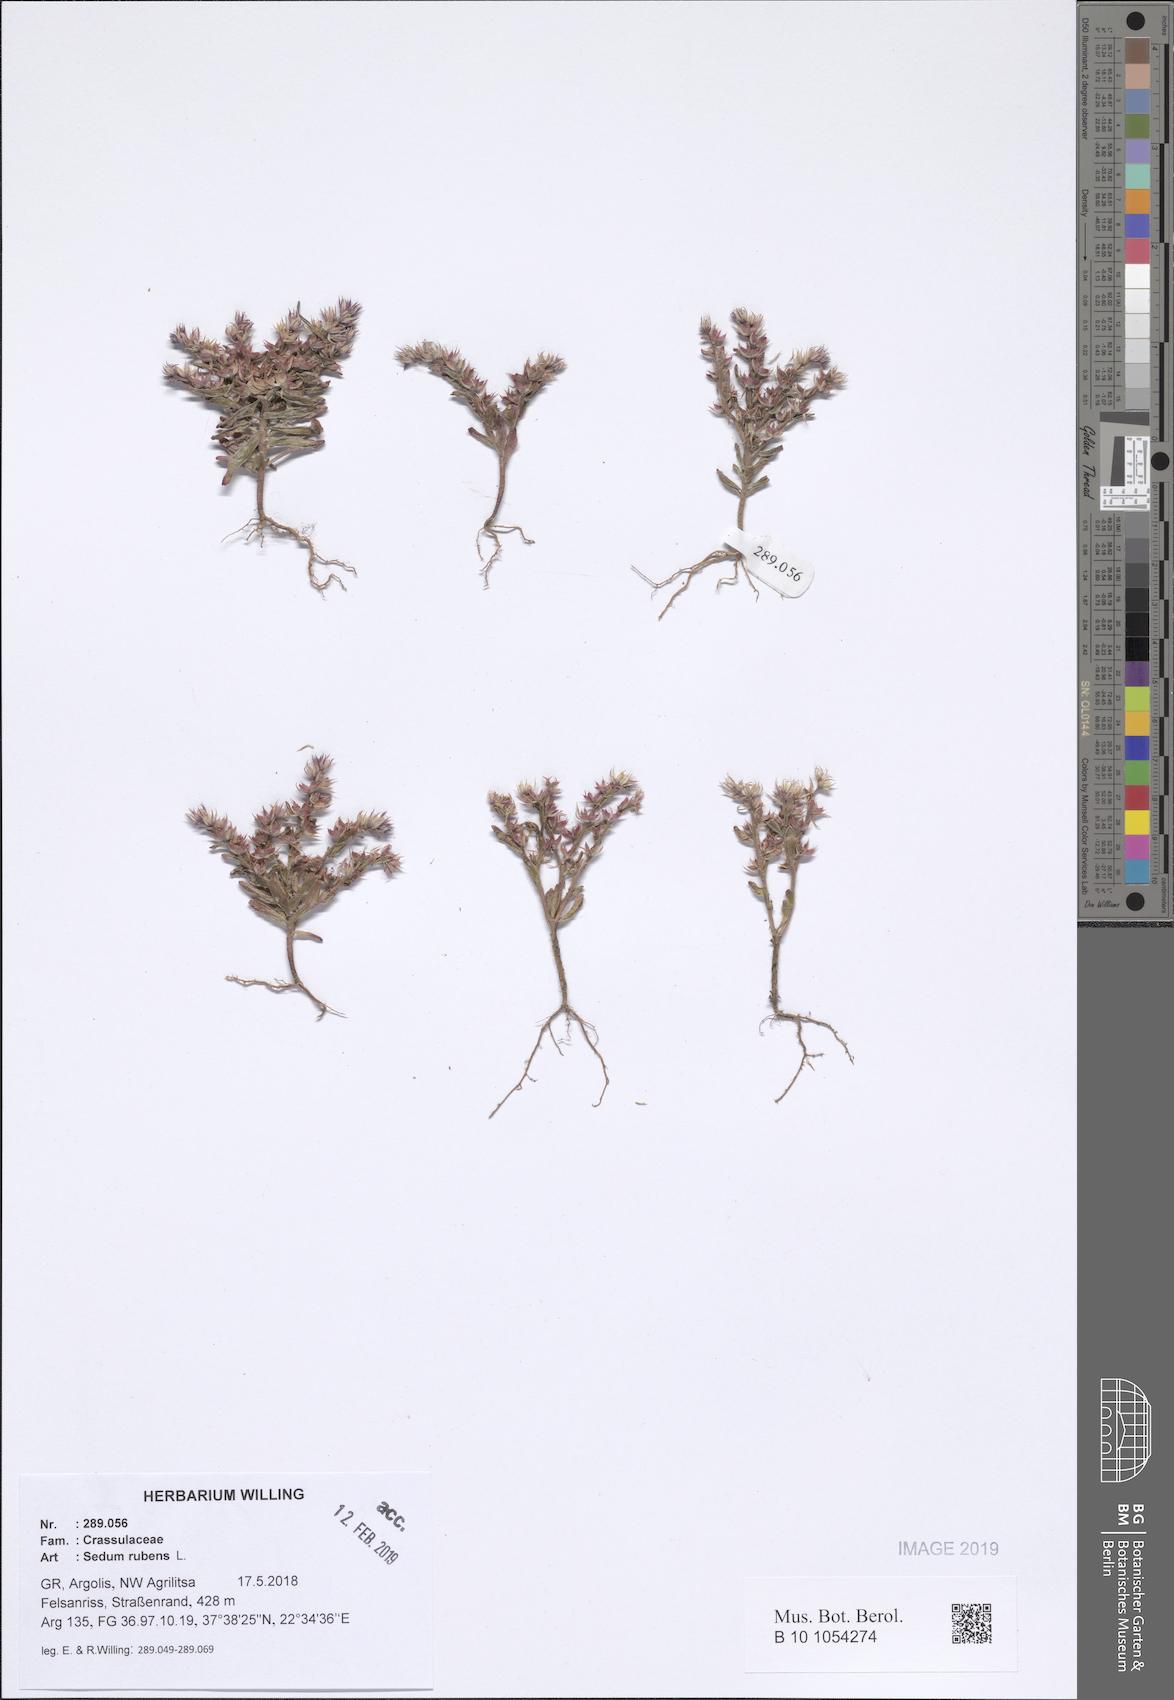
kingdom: Plantae
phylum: Tracheophyta
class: Magnoliopsida
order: Saxifragales
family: Crassulaceae
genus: Sedum
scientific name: Sedum rubens
